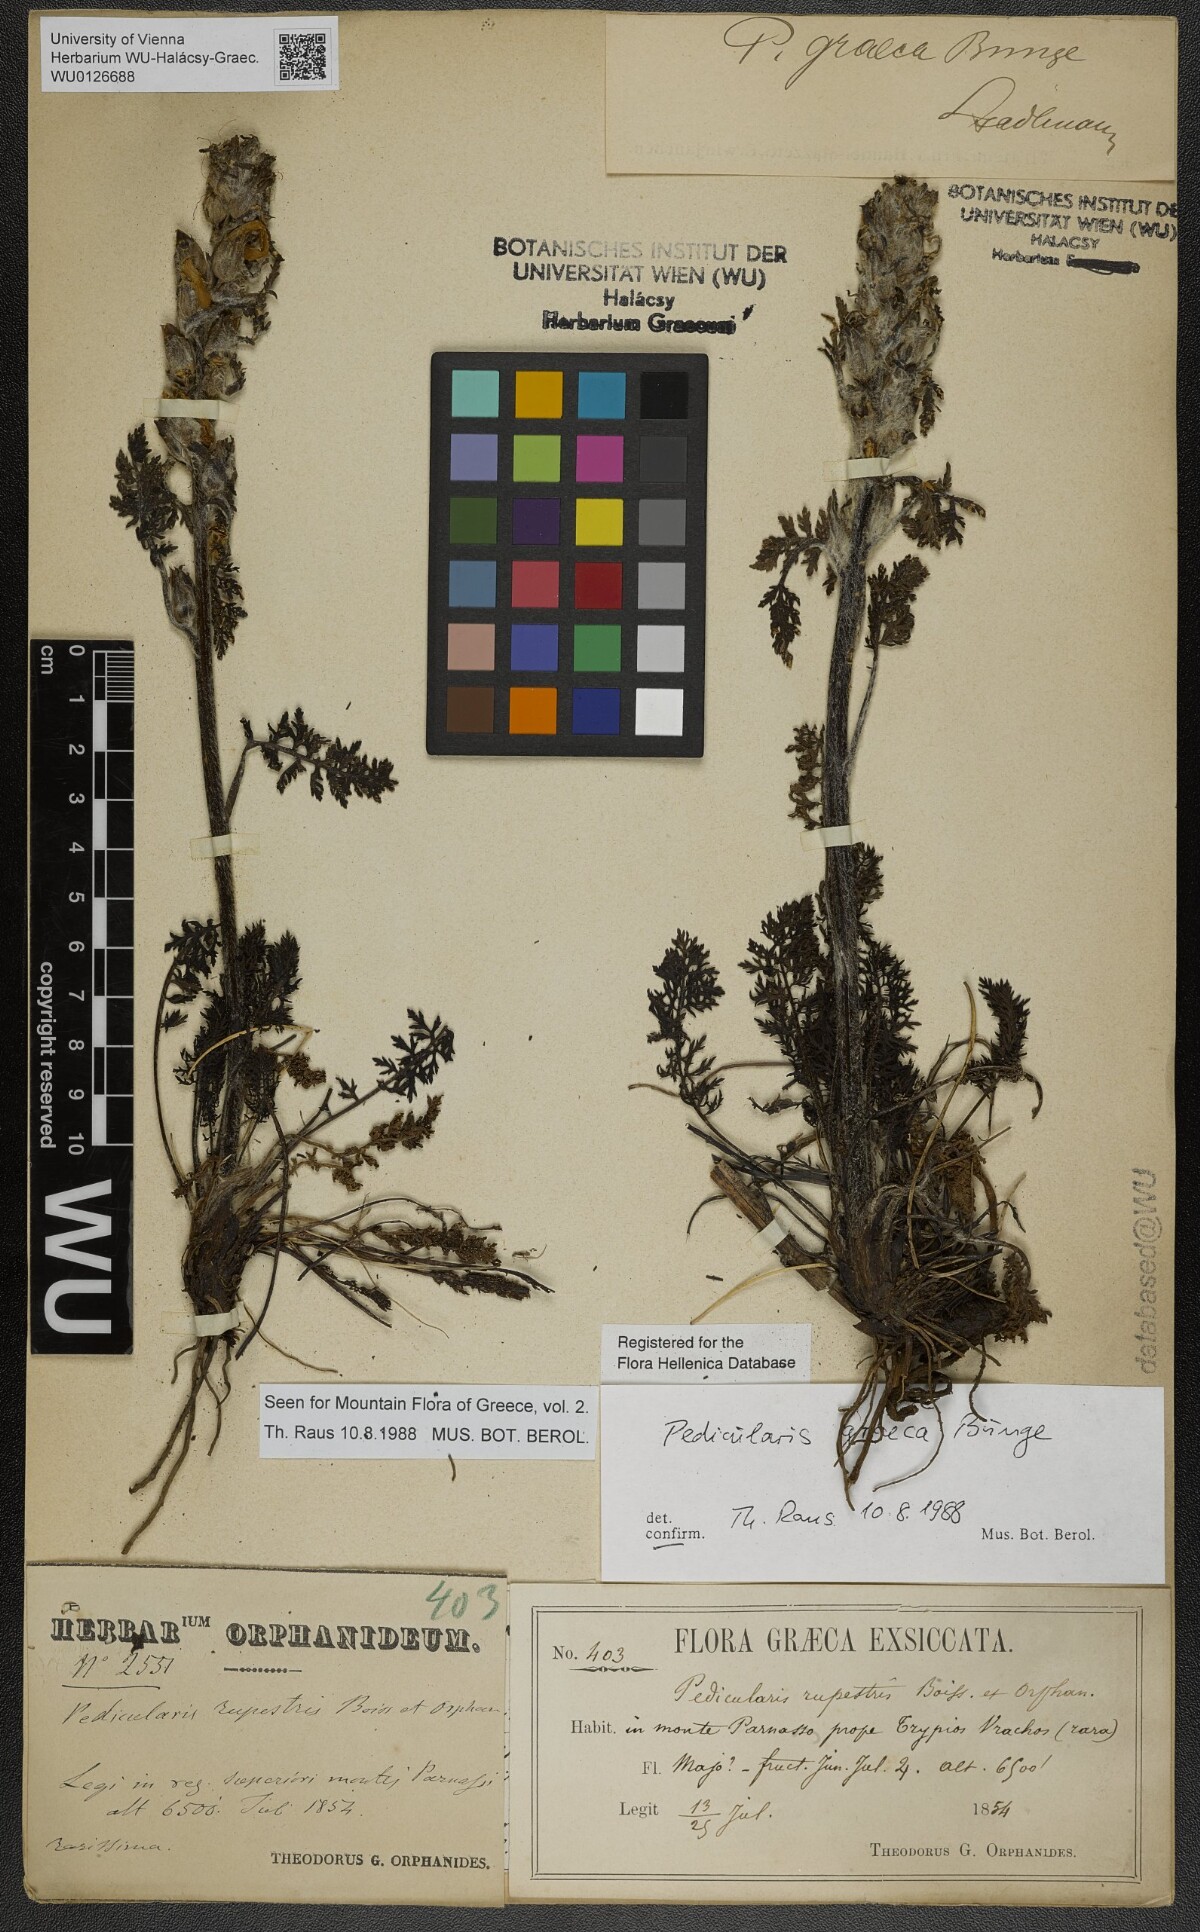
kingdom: Plantae
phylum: Tracheophyta
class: Magnoliopsida
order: Lamiales
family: Orobanchaceae
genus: Pedicularis
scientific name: Pedicularis graeca
